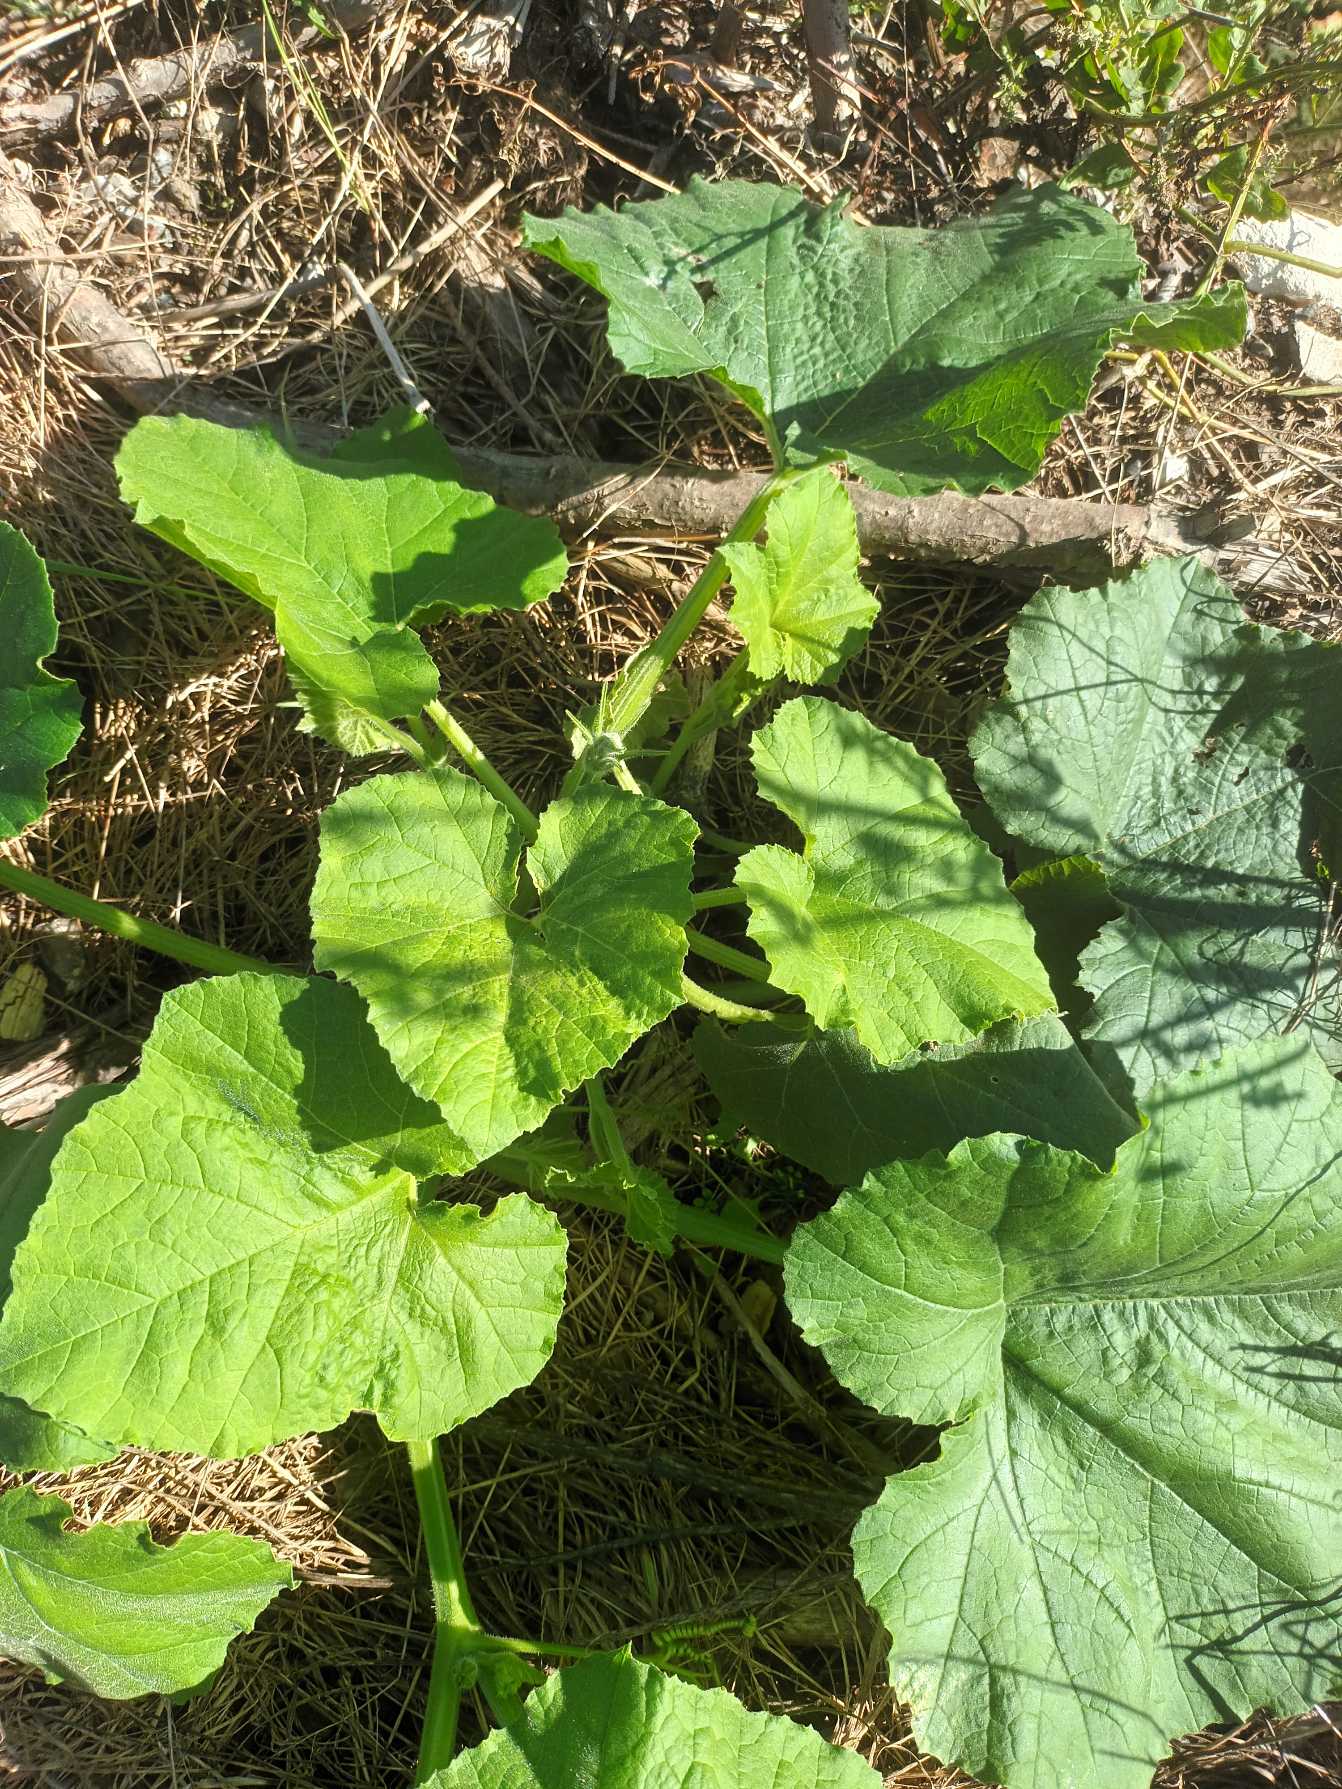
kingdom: Plantae
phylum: Tracheophyta
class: Magnoliopsida
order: Cucurbitales
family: Cucurbitaceae
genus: Cucurbita
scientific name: Cucurbita maxima
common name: Centner-græskar
